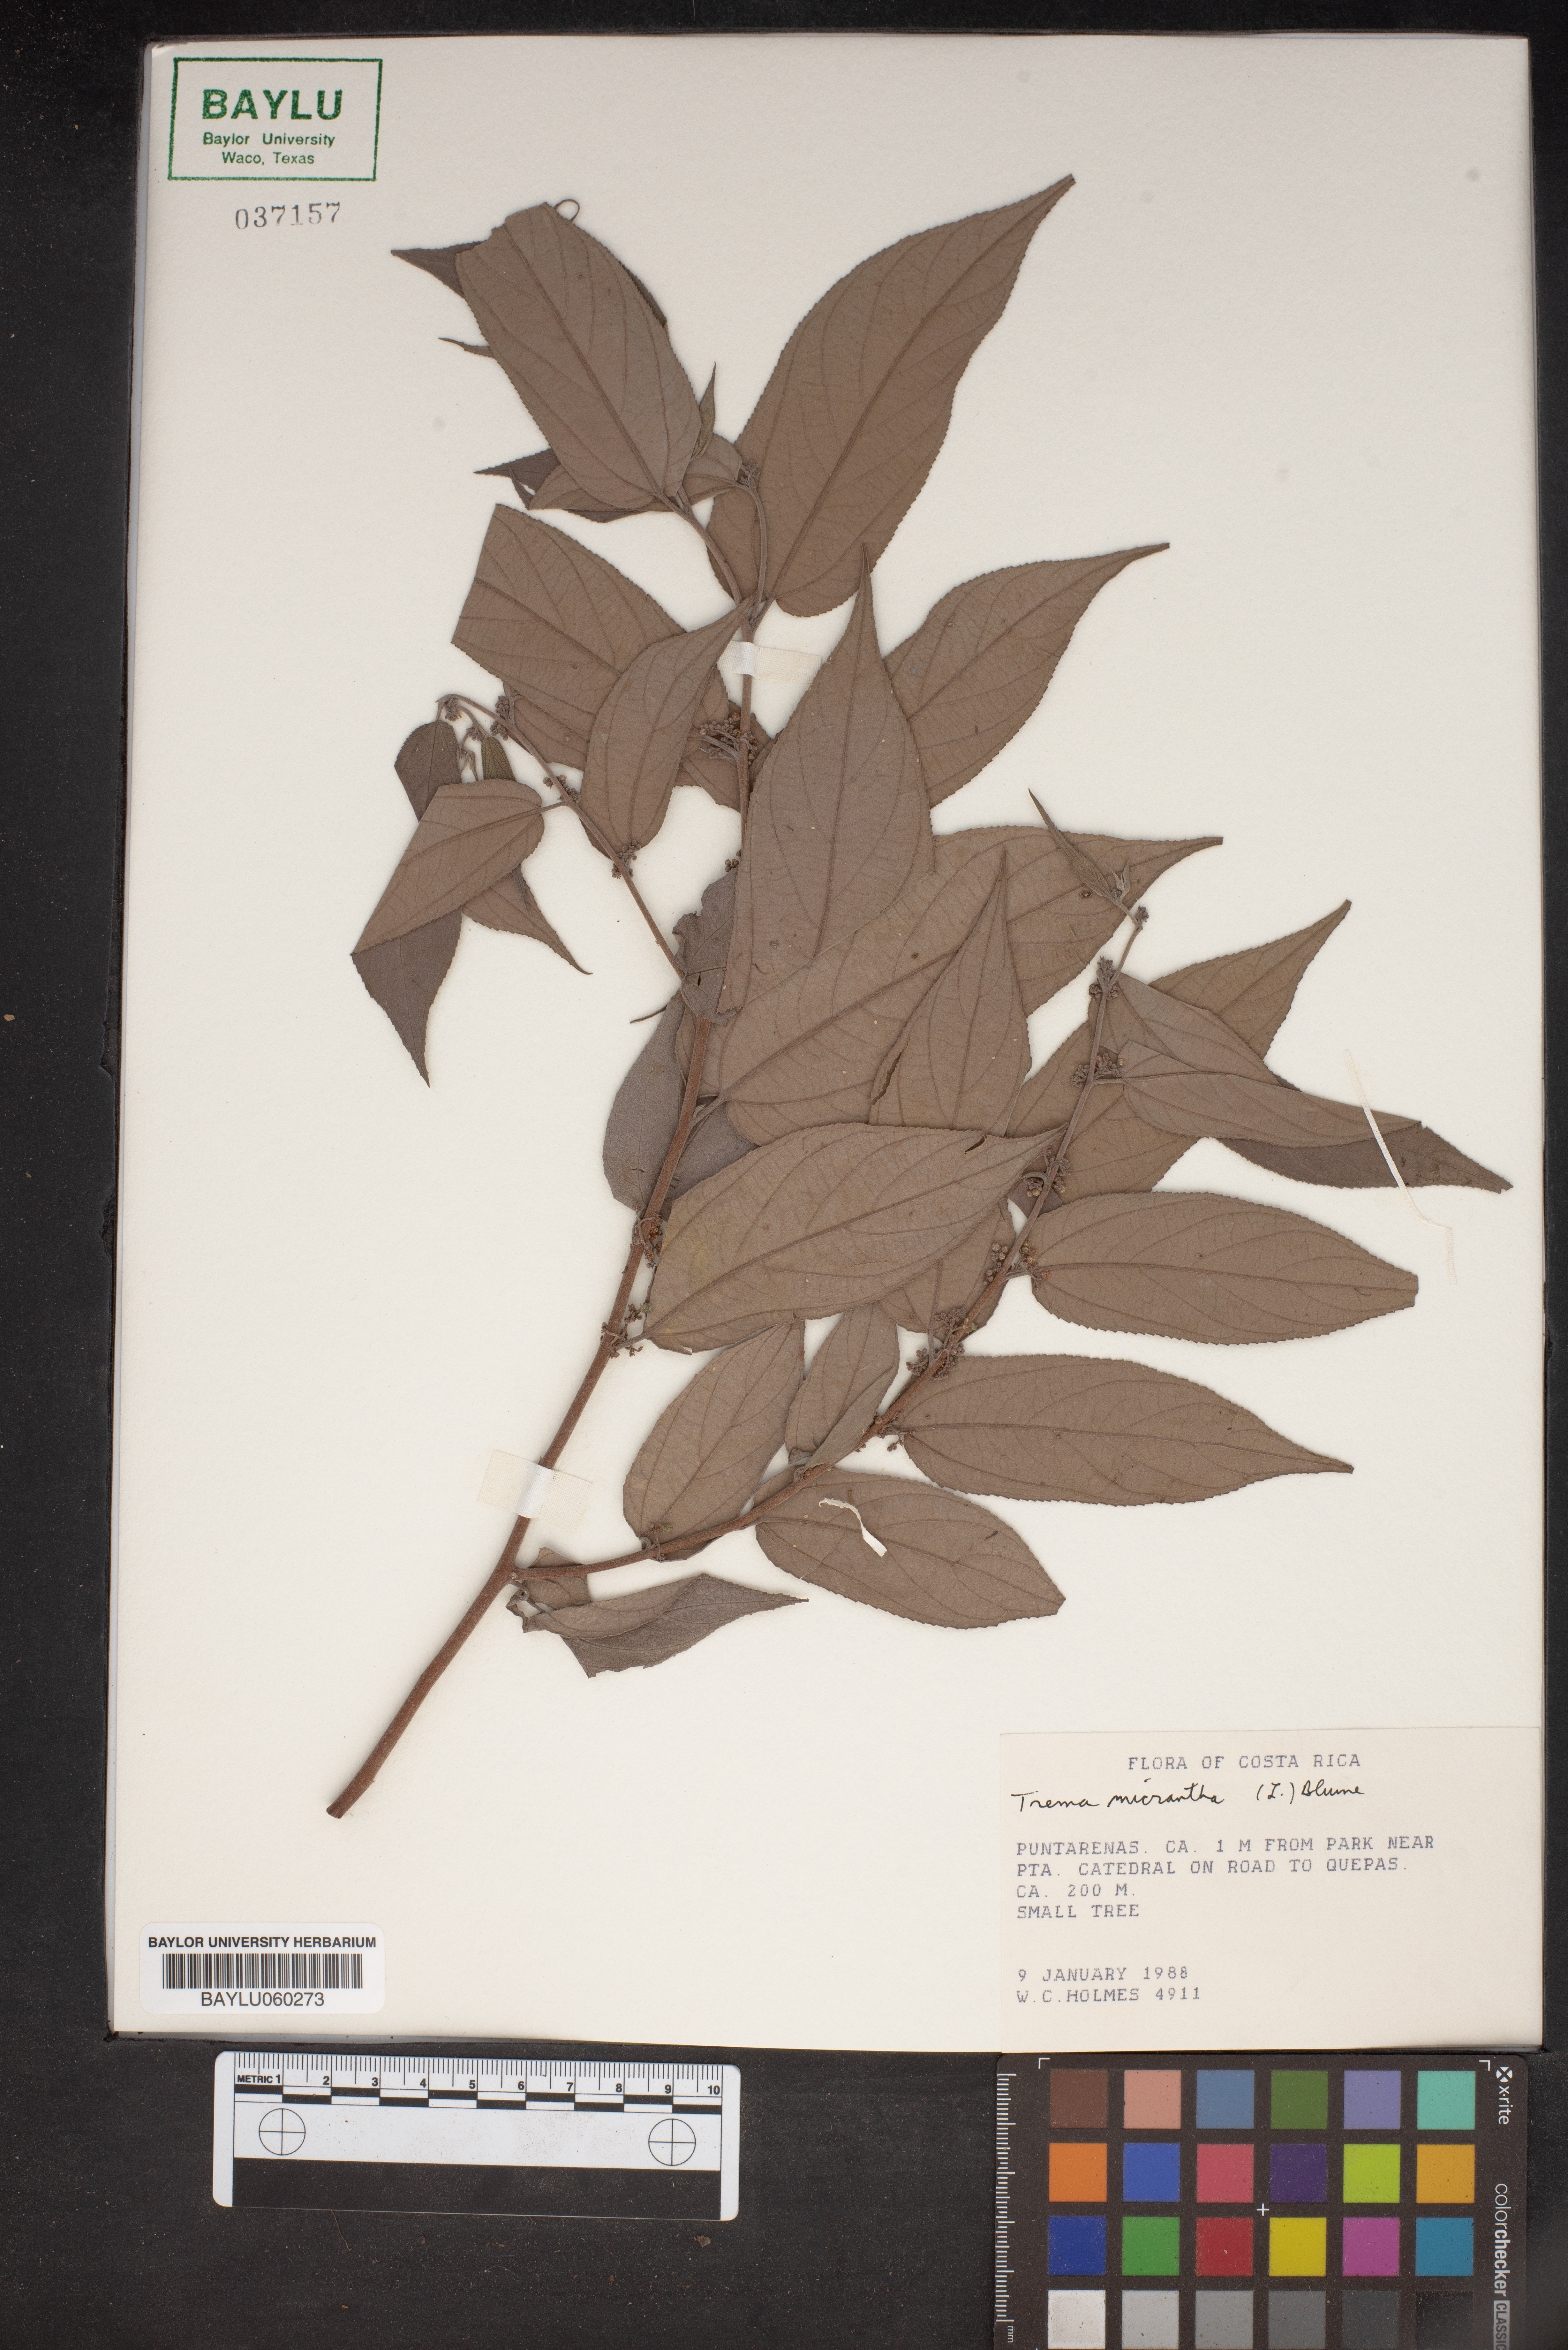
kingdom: Plantae
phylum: Tracheophyta
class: Magnoliopsida
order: Rosales
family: Cannabaceae
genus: Trema
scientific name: Trema micranthum
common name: Jamaican nettletree
